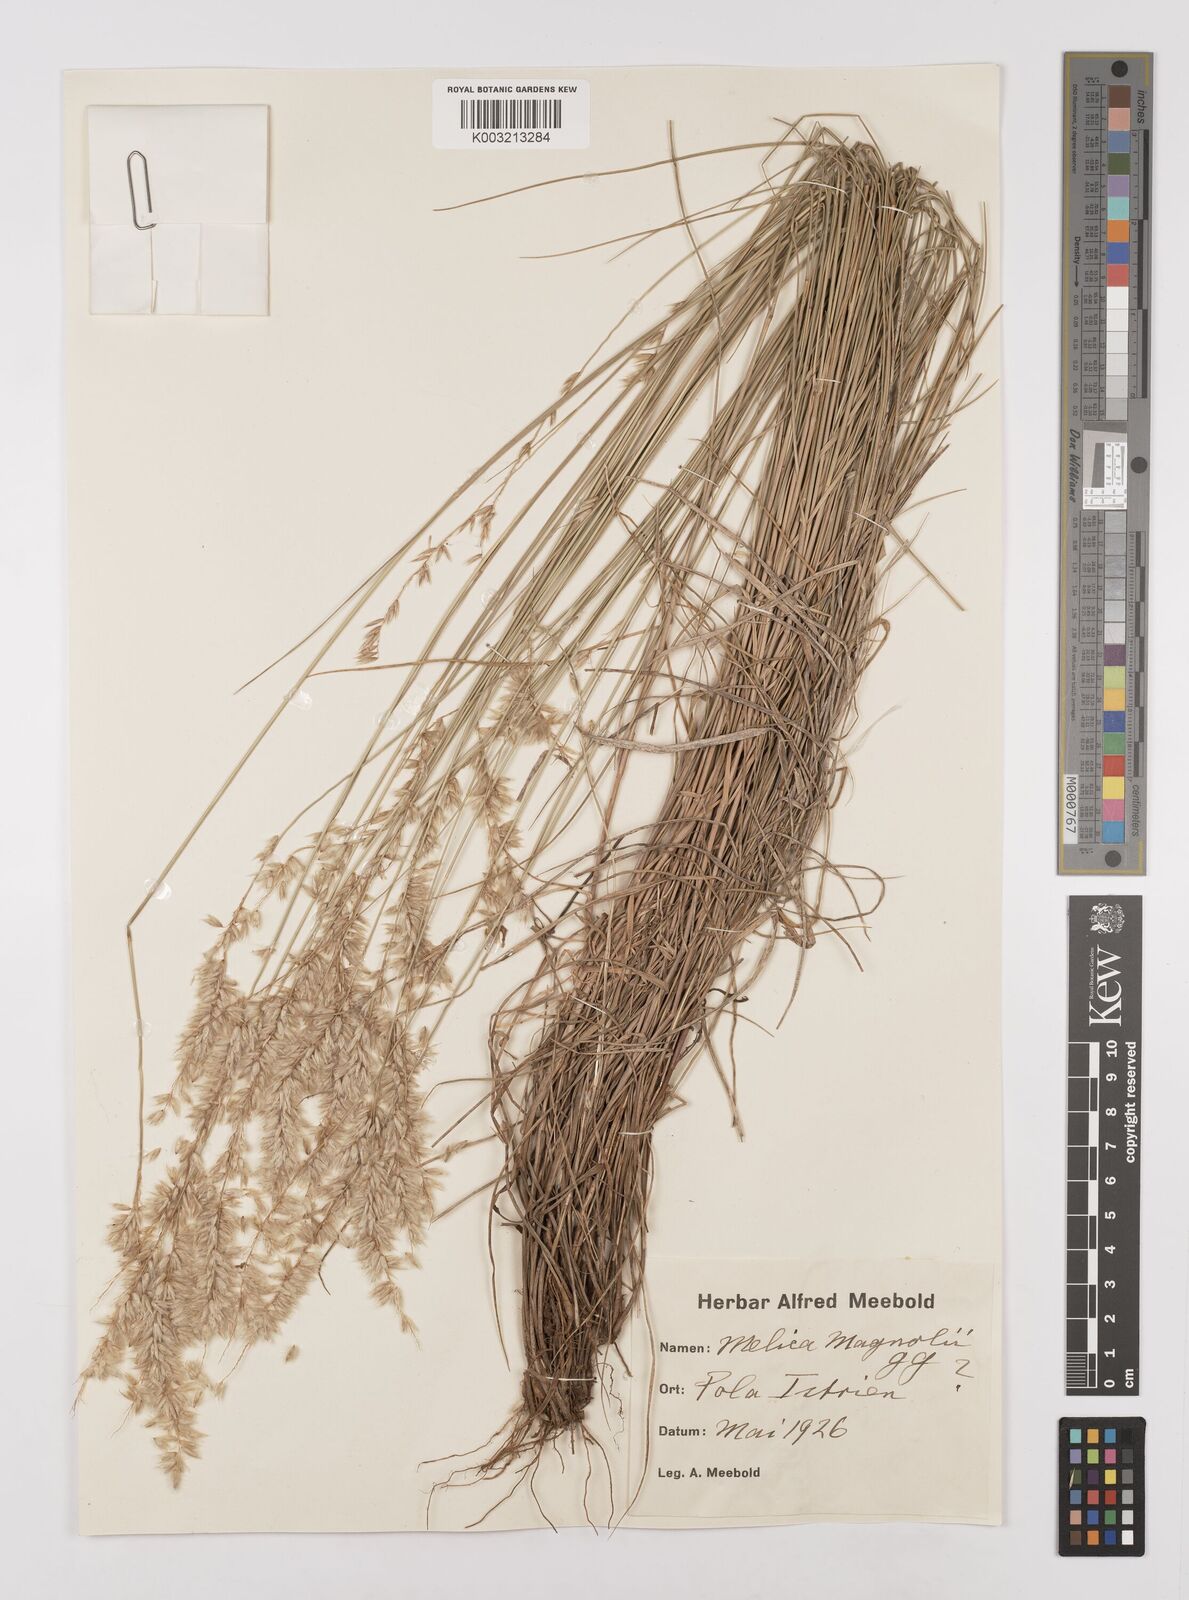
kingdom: Plantae
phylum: Tracheophyta
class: Liliopsida
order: Poales
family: Poaceae
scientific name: Poaceae
